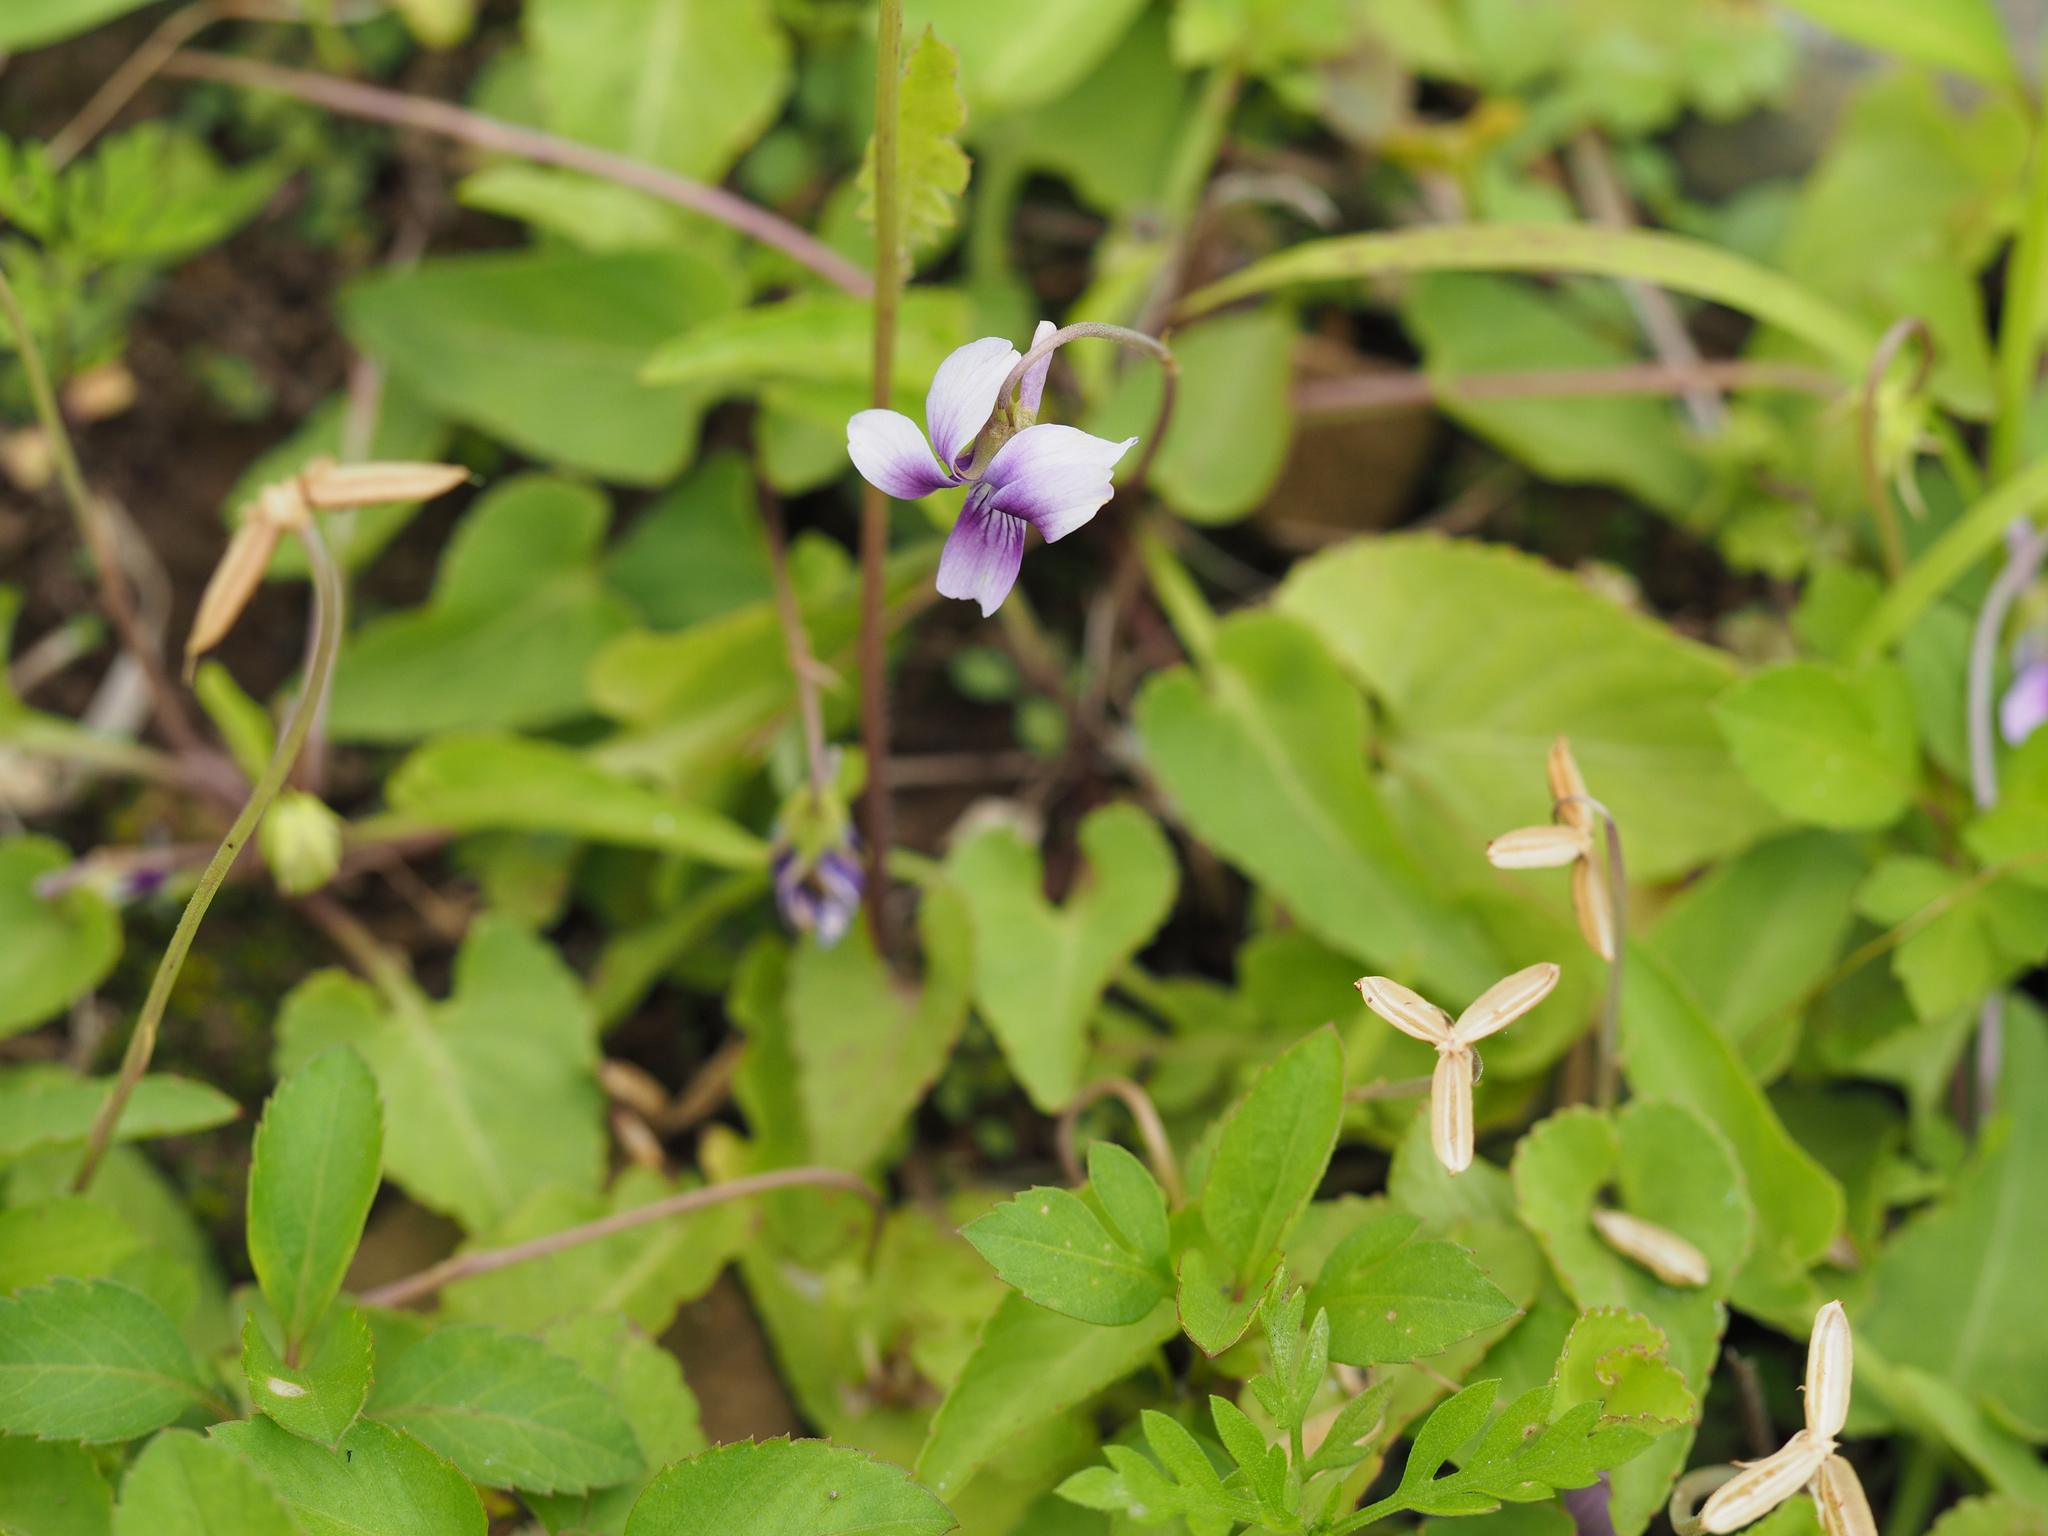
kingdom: Plantae
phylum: Tracheophyta
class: Magnoliopsida
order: Malpighiales
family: Violaceae
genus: Viola
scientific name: Viola philippica
